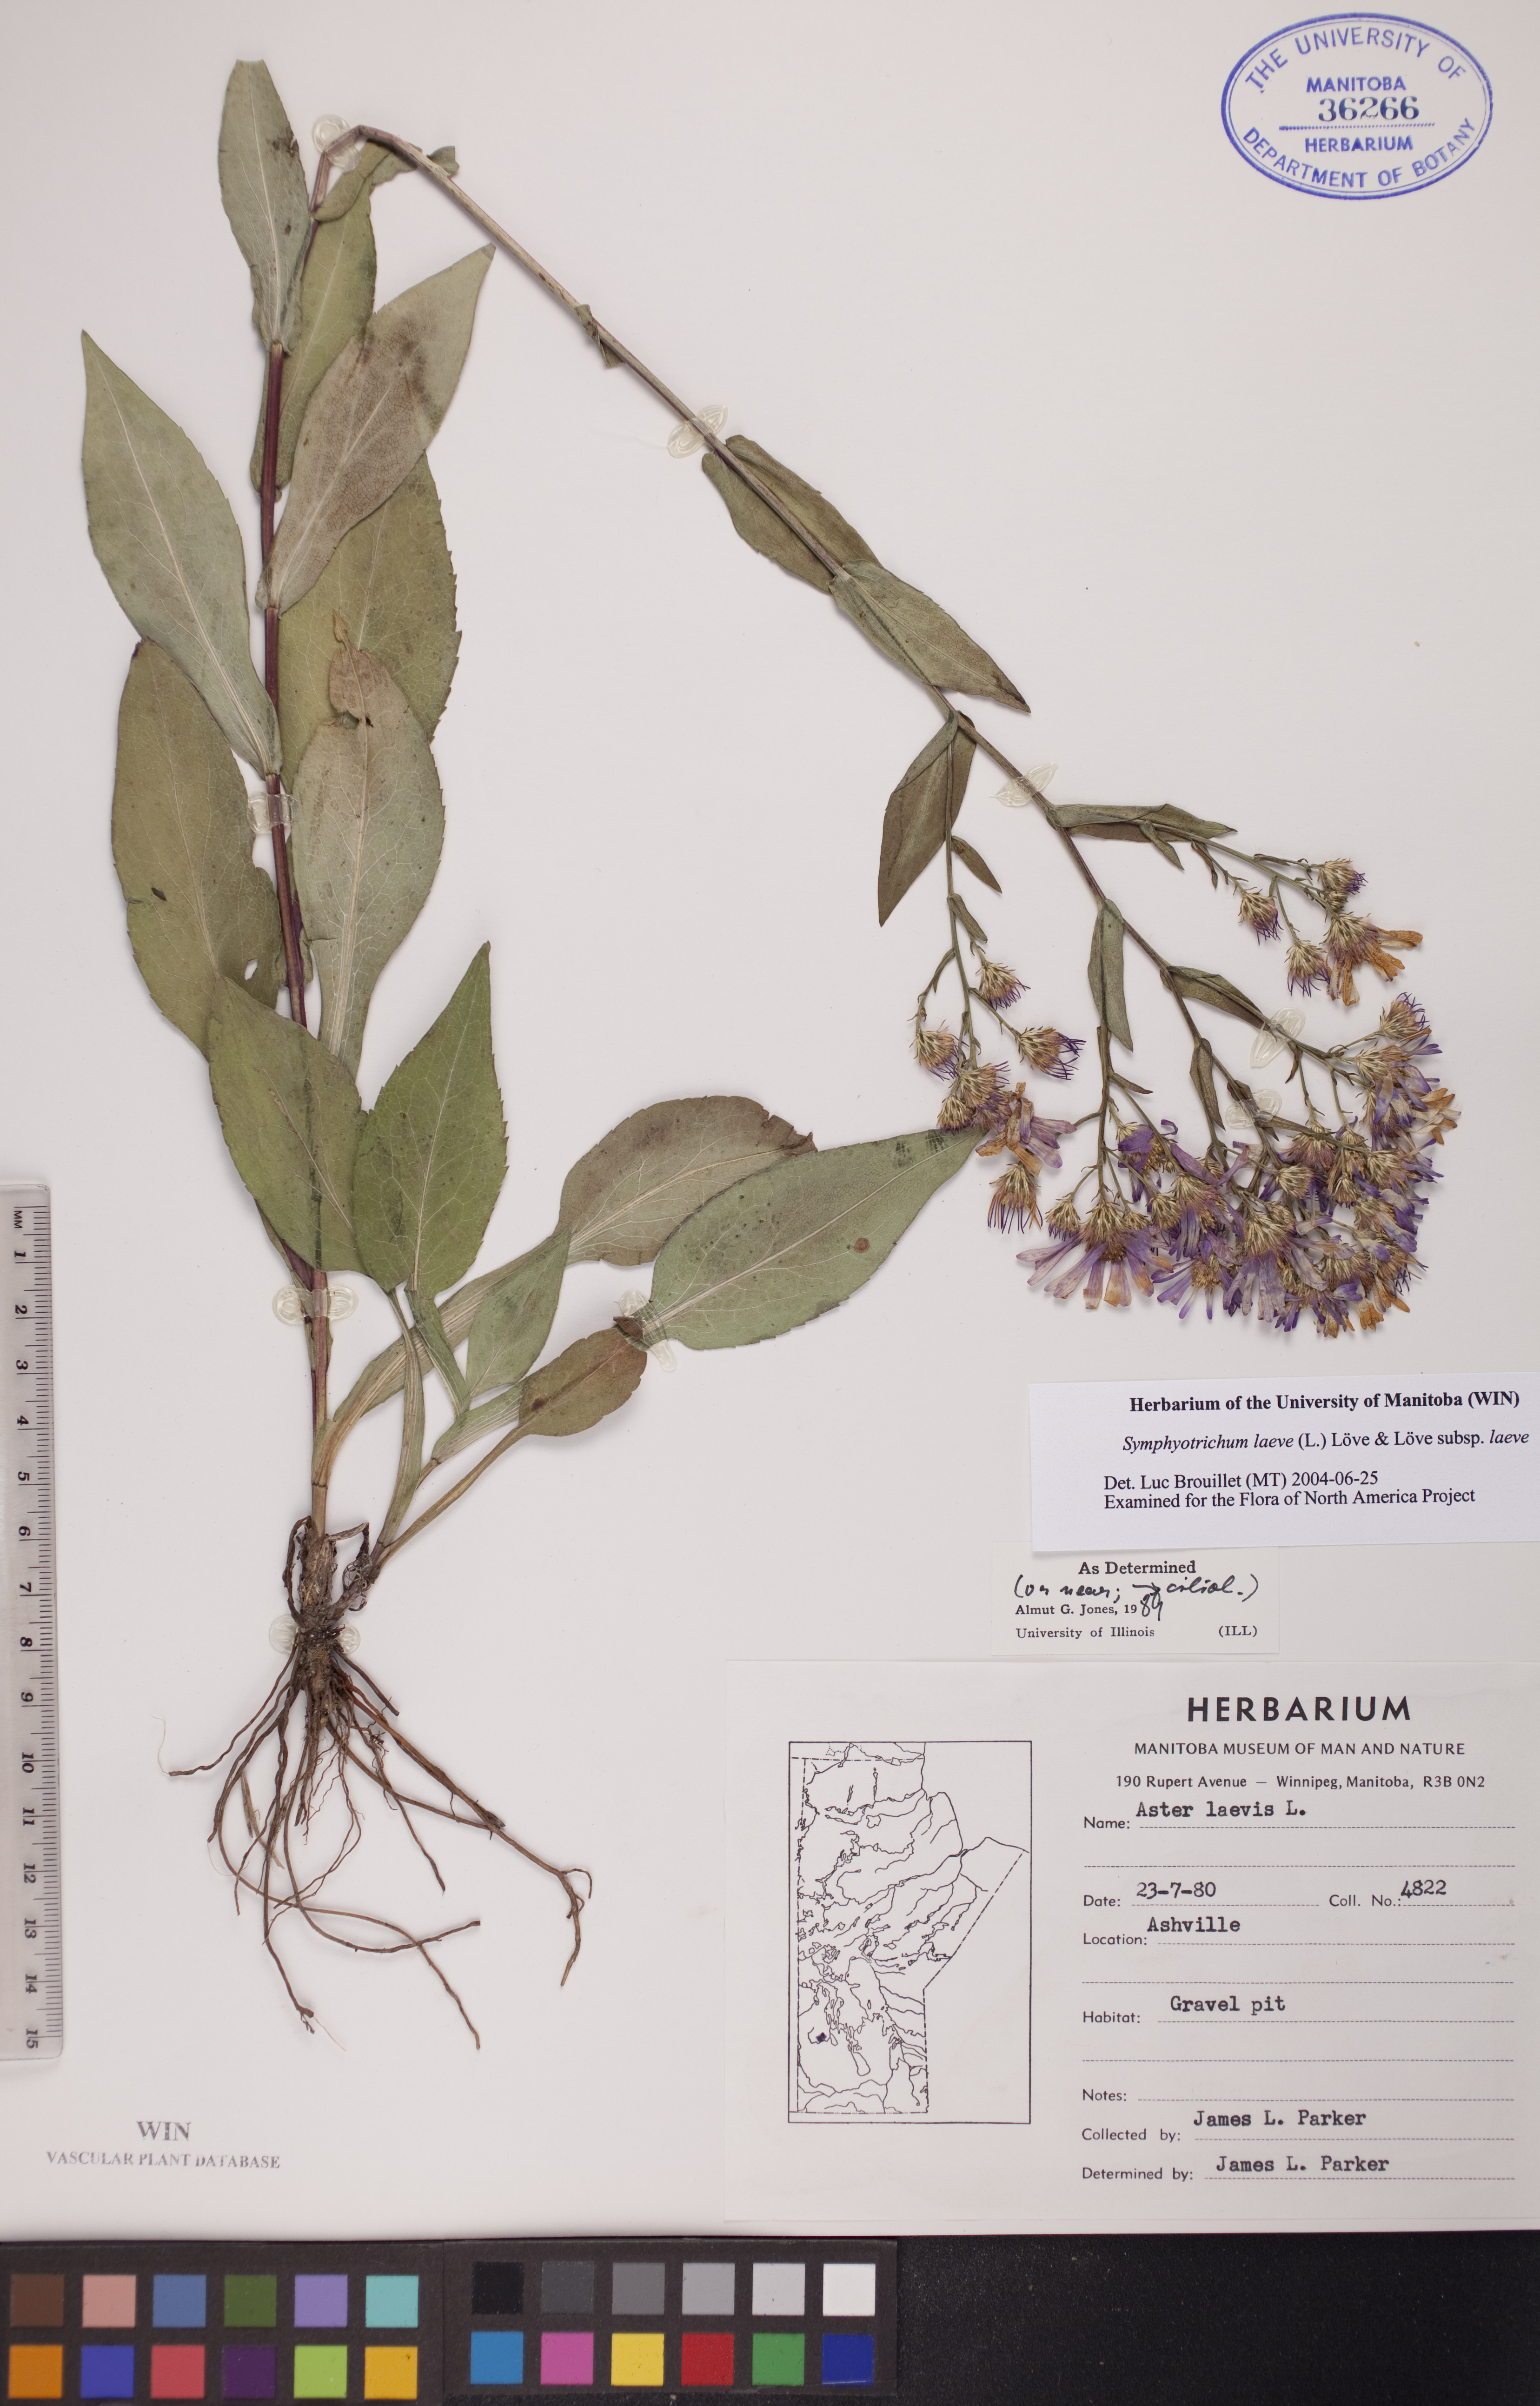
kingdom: Plantae
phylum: Tracheophyta
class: Magnoliopsida
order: Asterales
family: Asteraceae
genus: Symphyotrichum
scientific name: Symphyotrichum laeve
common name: Glaucous aster
